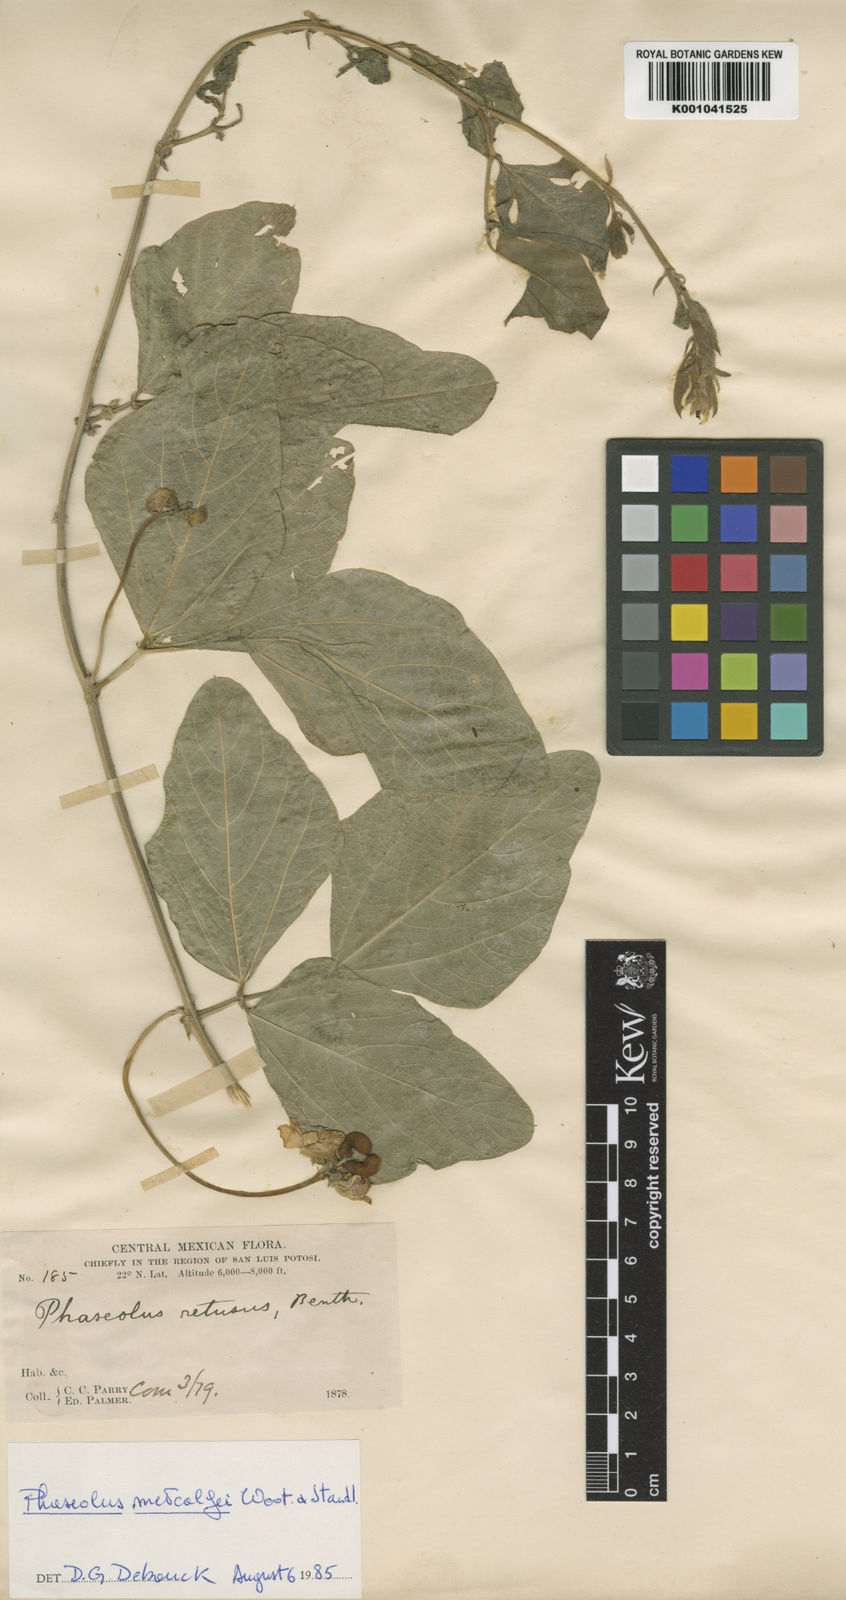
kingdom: Plantae
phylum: Tracheophyta
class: Magnoliopsida
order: Fabales
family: Fabaceae
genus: Phaseolus
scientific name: Phaseolus maculatus
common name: Metcalfe bean
